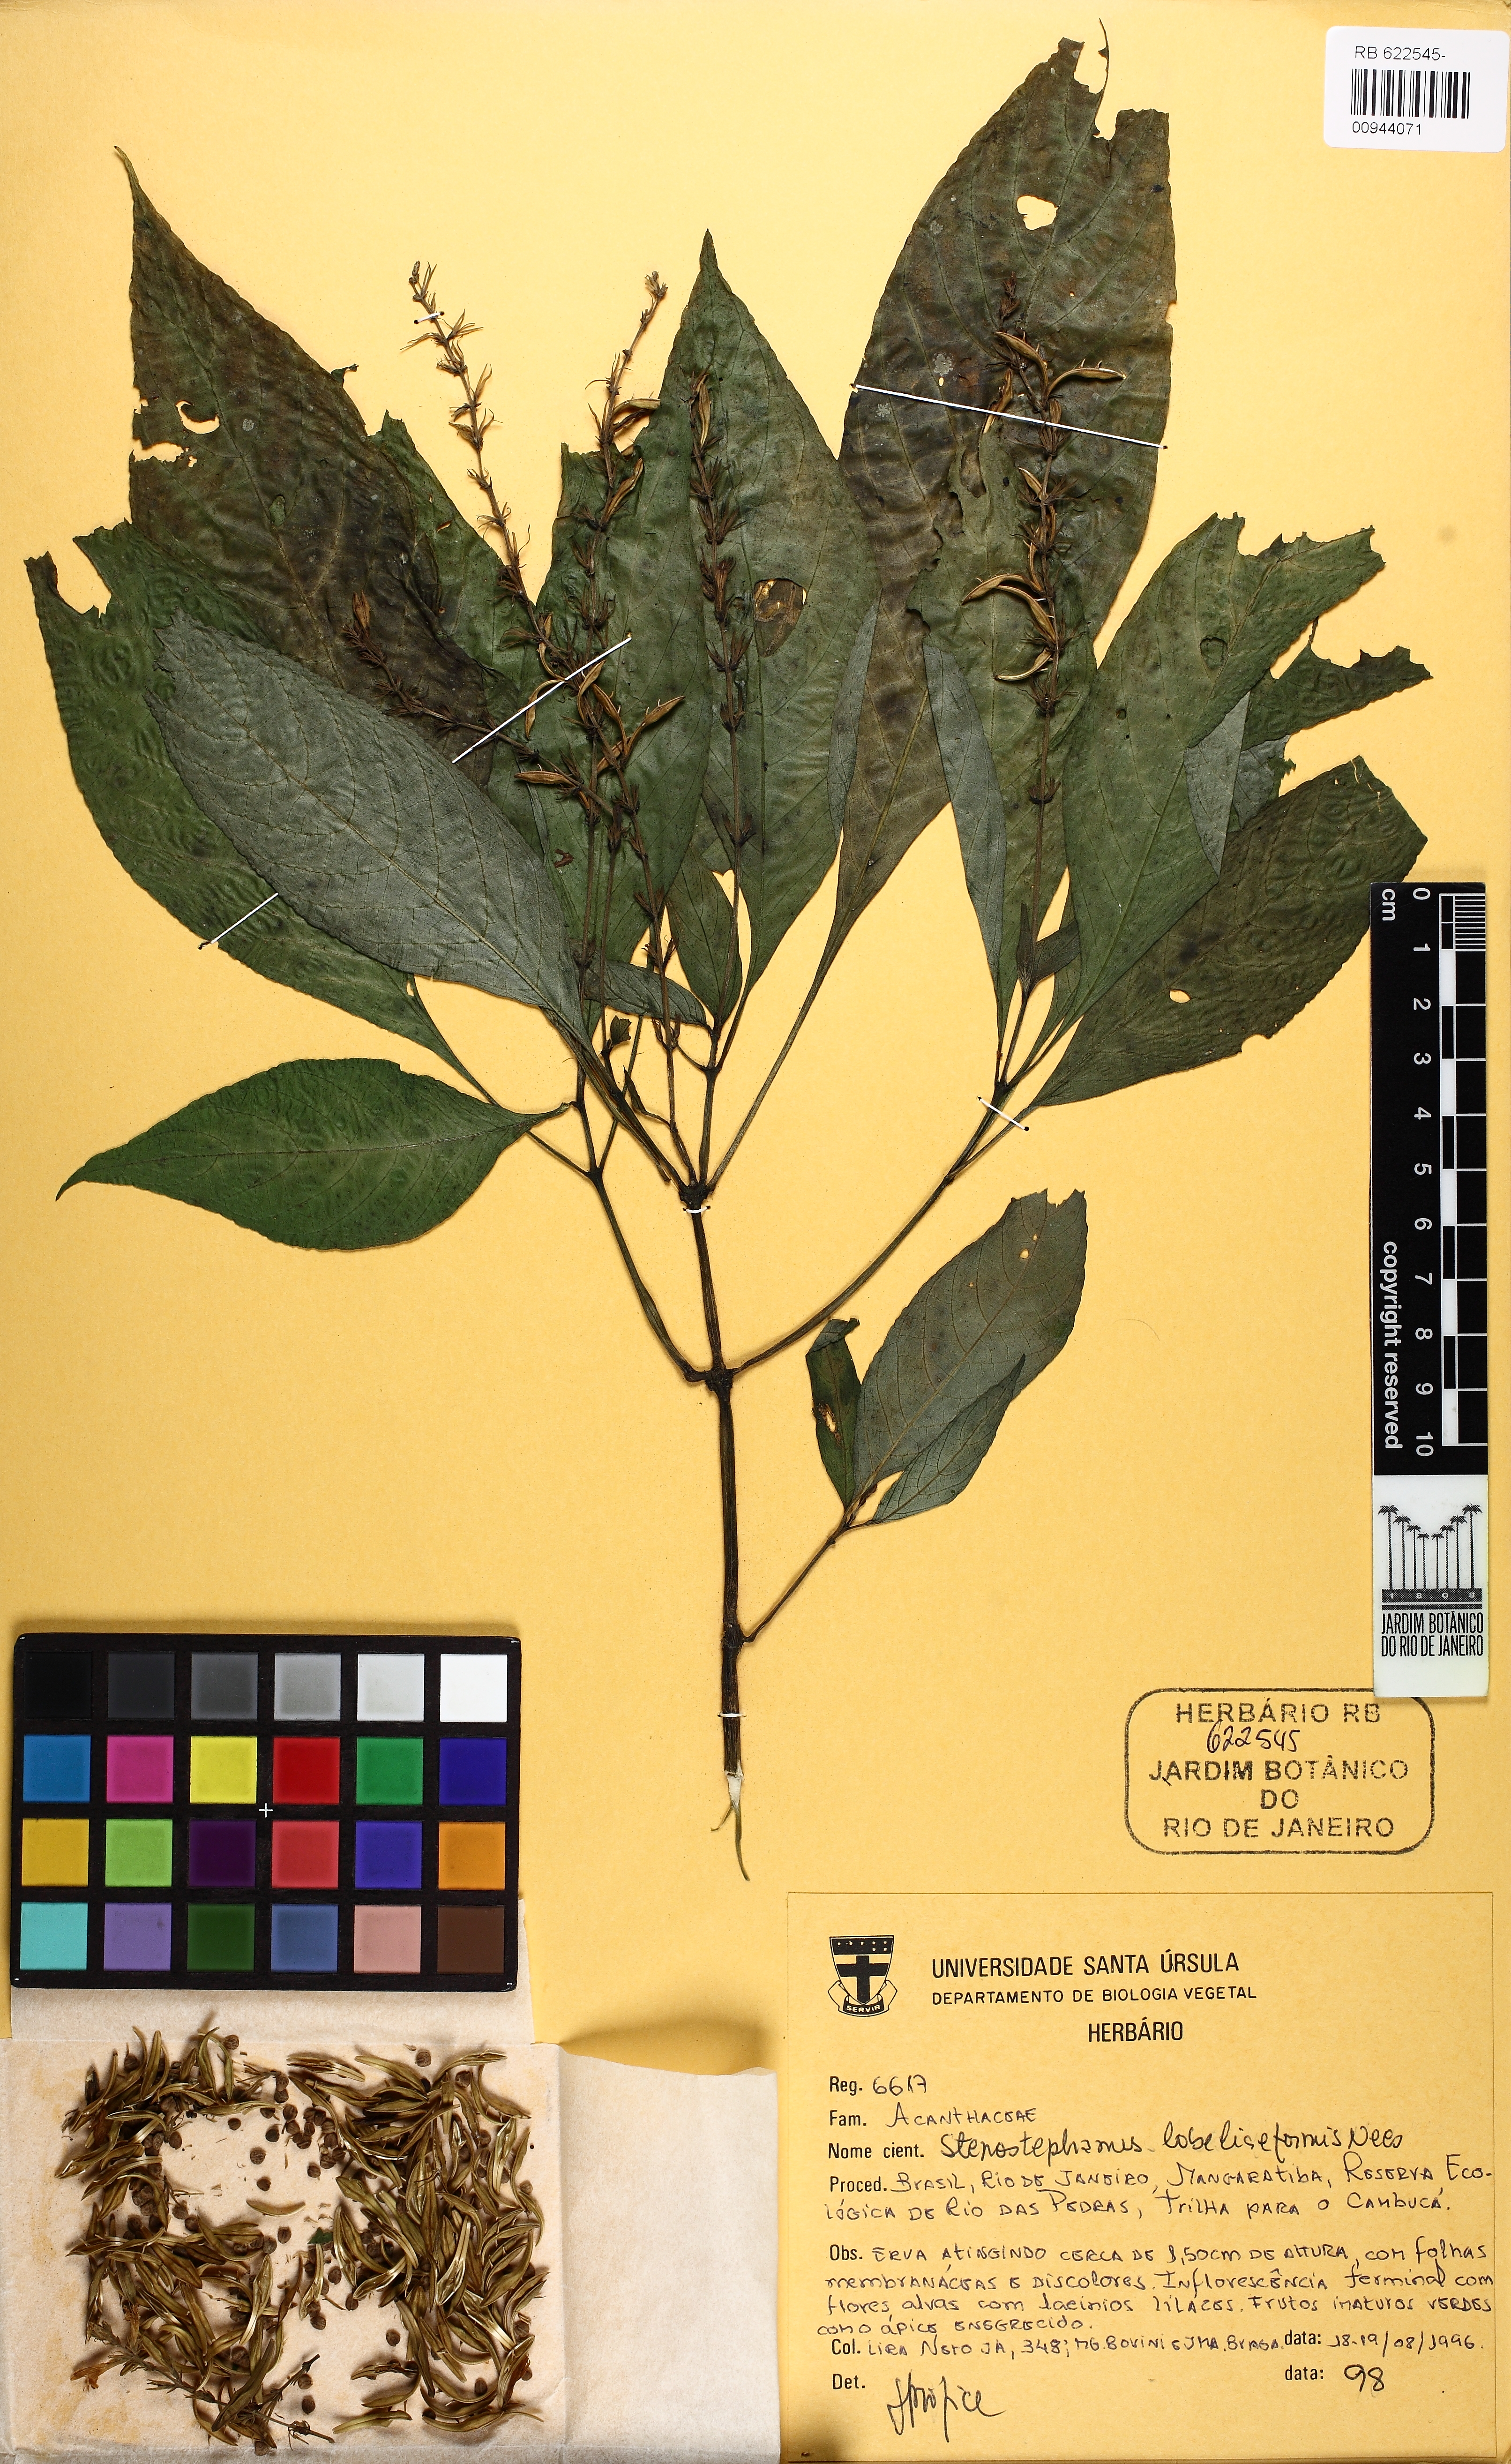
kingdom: Plantae
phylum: Tracheophyta
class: Magnoliopsida
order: Lamiales
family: Acanthaceae
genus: Stenostephanus
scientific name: Stenostephanus lobeliaeformis
